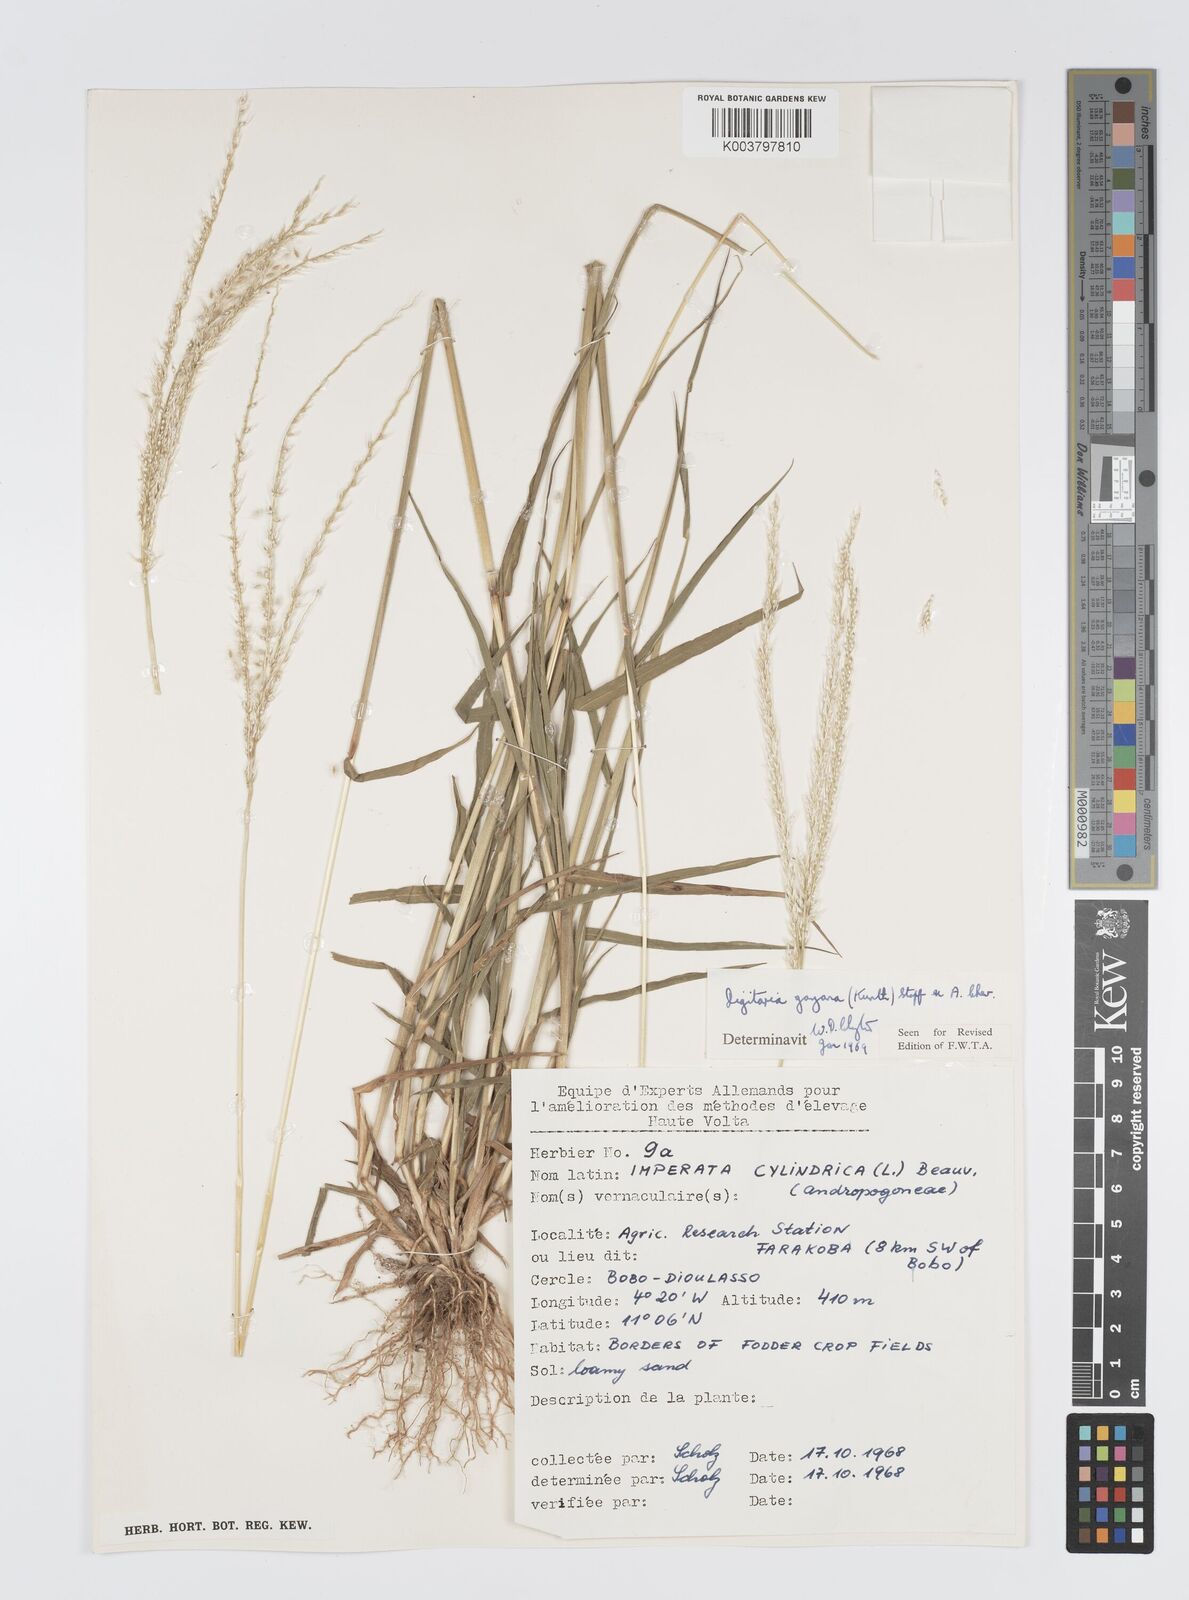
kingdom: Plantae
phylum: Tracheophyta
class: Liliopsida
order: Poales
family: Poaceae
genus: Digitaria
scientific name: Digitaria gayana
